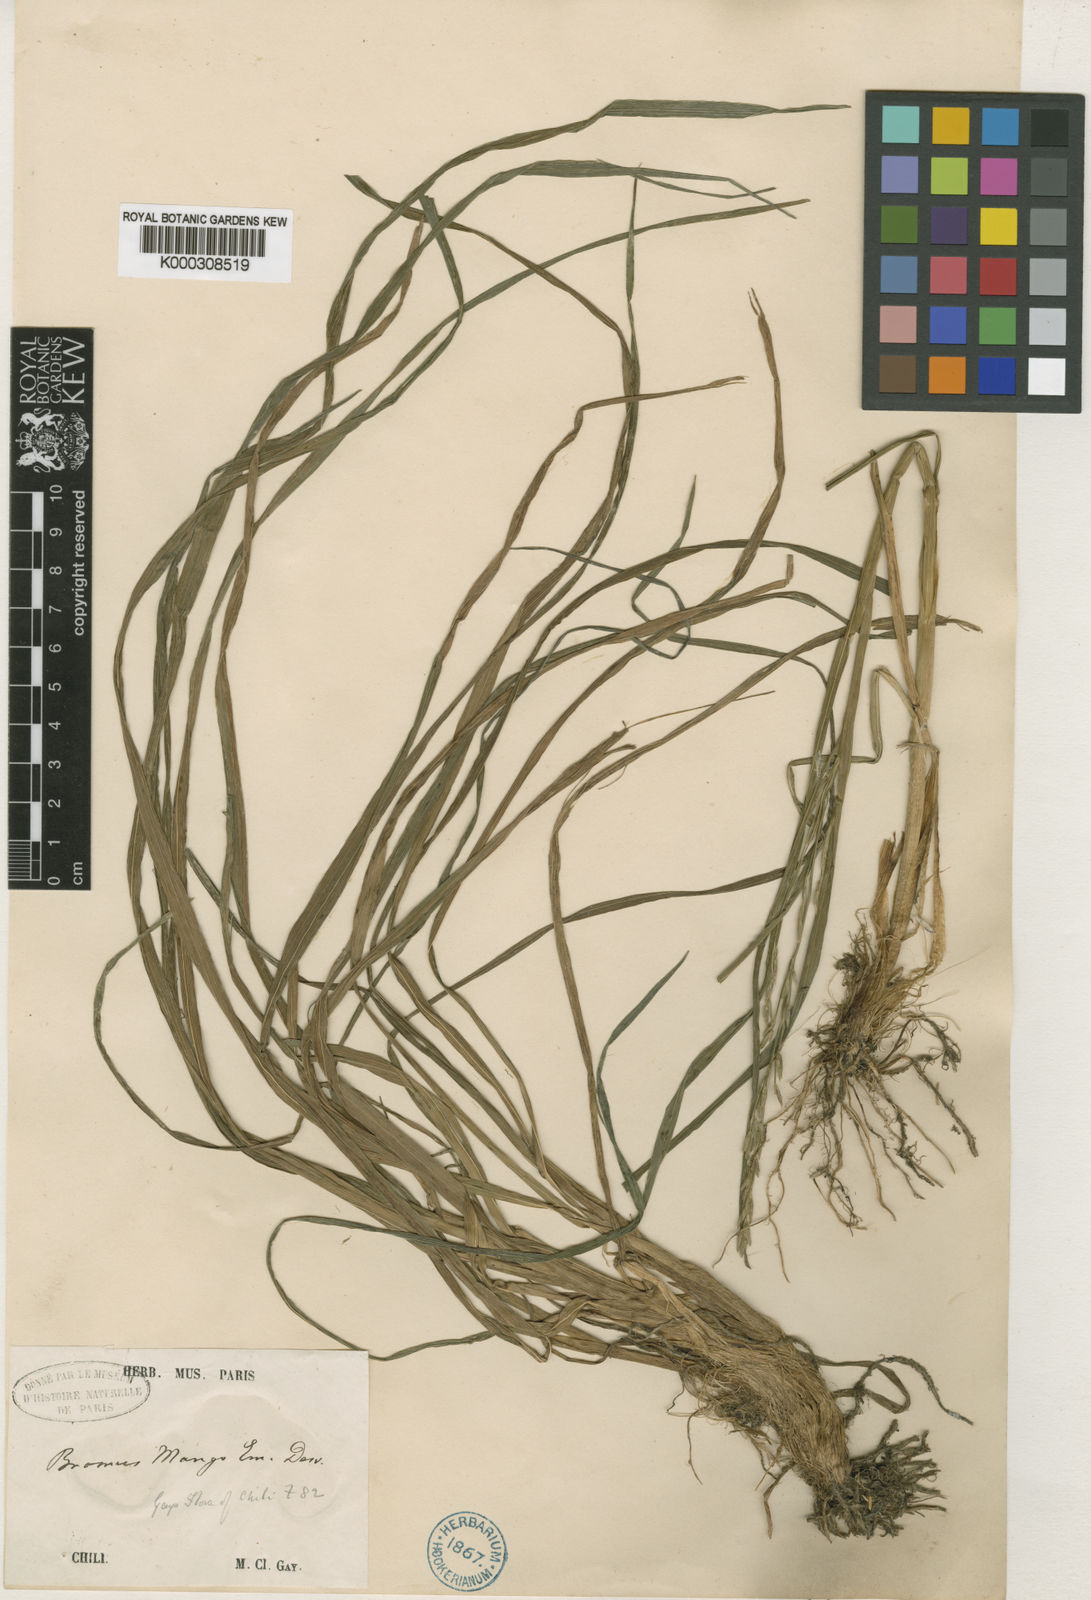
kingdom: Plantae
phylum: Tracheophyta
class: Liliopsida
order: Poales
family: Poaceae
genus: Bromus
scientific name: Bromus mango
